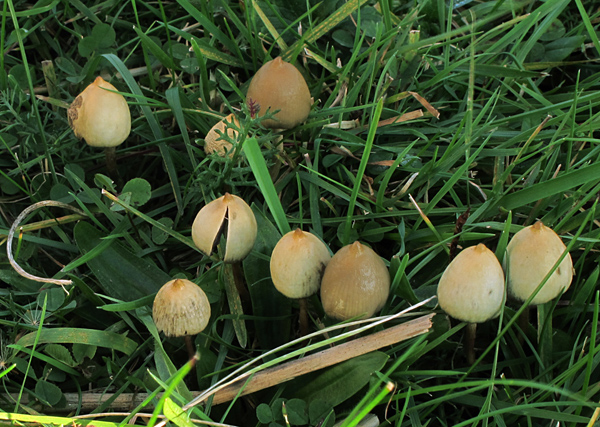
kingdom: Fungi
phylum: Basidiomycota
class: Agaricomycetes
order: Agaricales
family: Hymenogastraceae
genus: Psilocybe
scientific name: Psilocybe semilanceata
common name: spids nøgenhat
